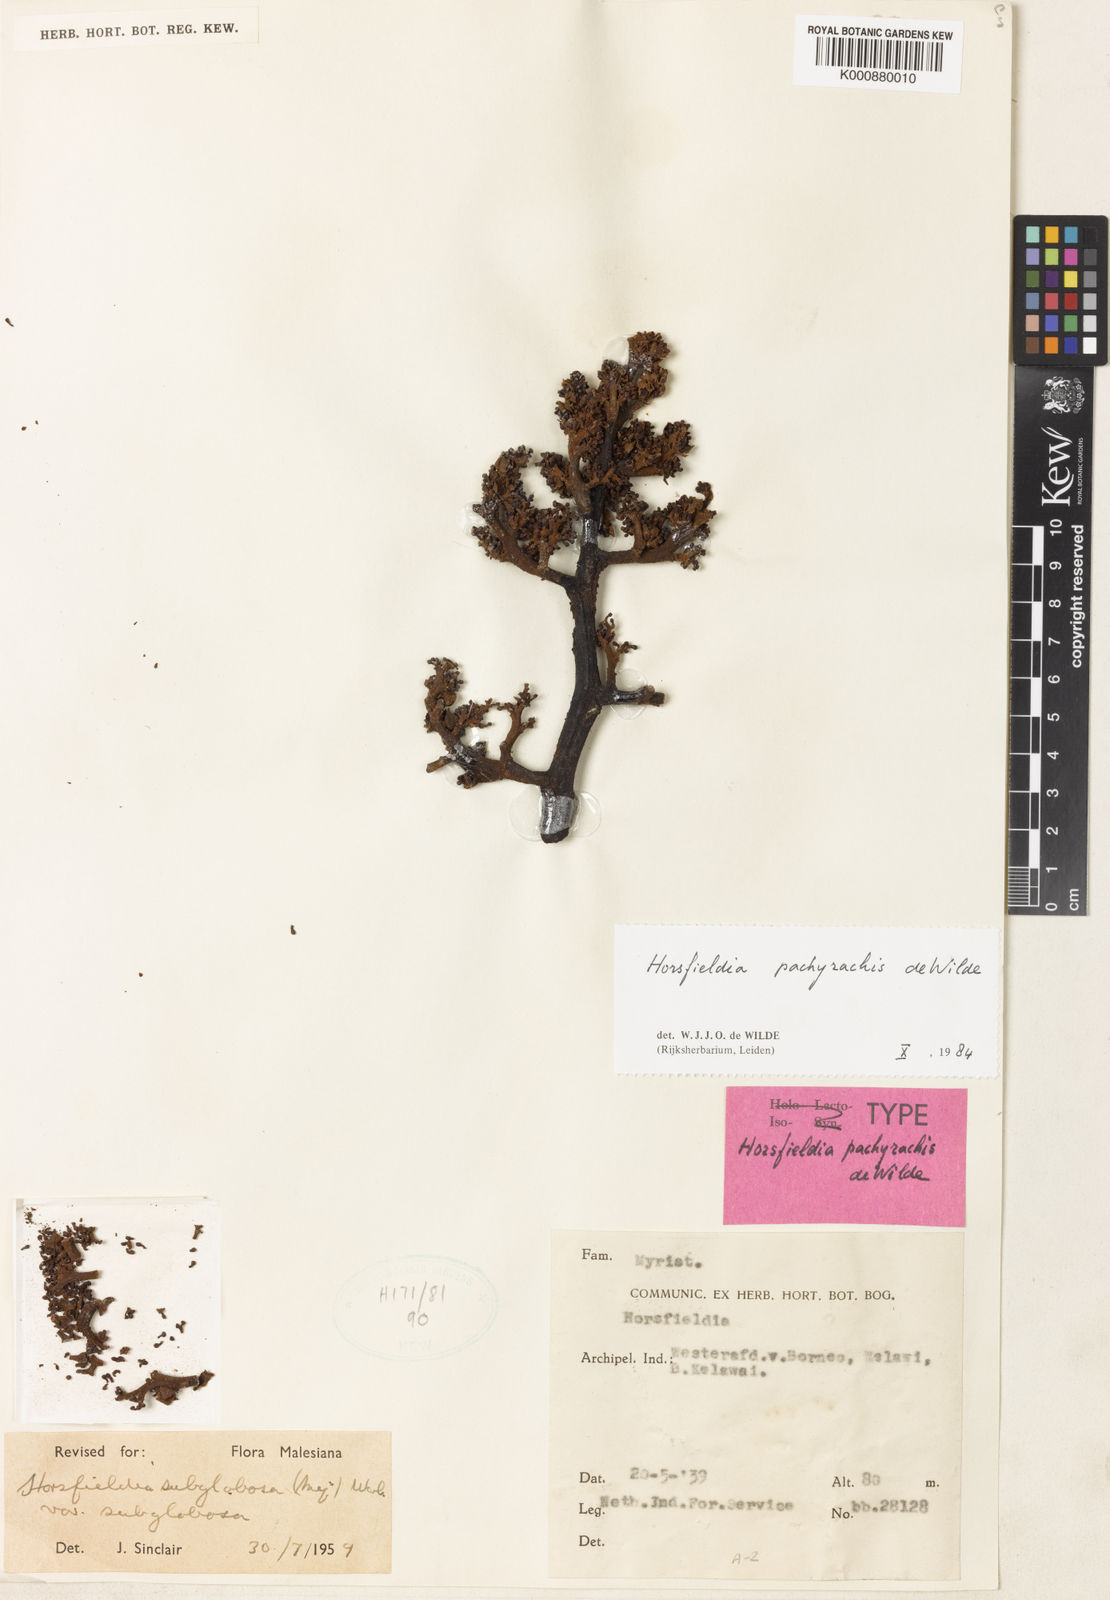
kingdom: Plantae
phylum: Tracheophyta
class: Magnoliopsida
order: Magnoliales
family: Myristicaceae
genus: Horsfieldia
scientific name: Horsfieldia pachyrachis
